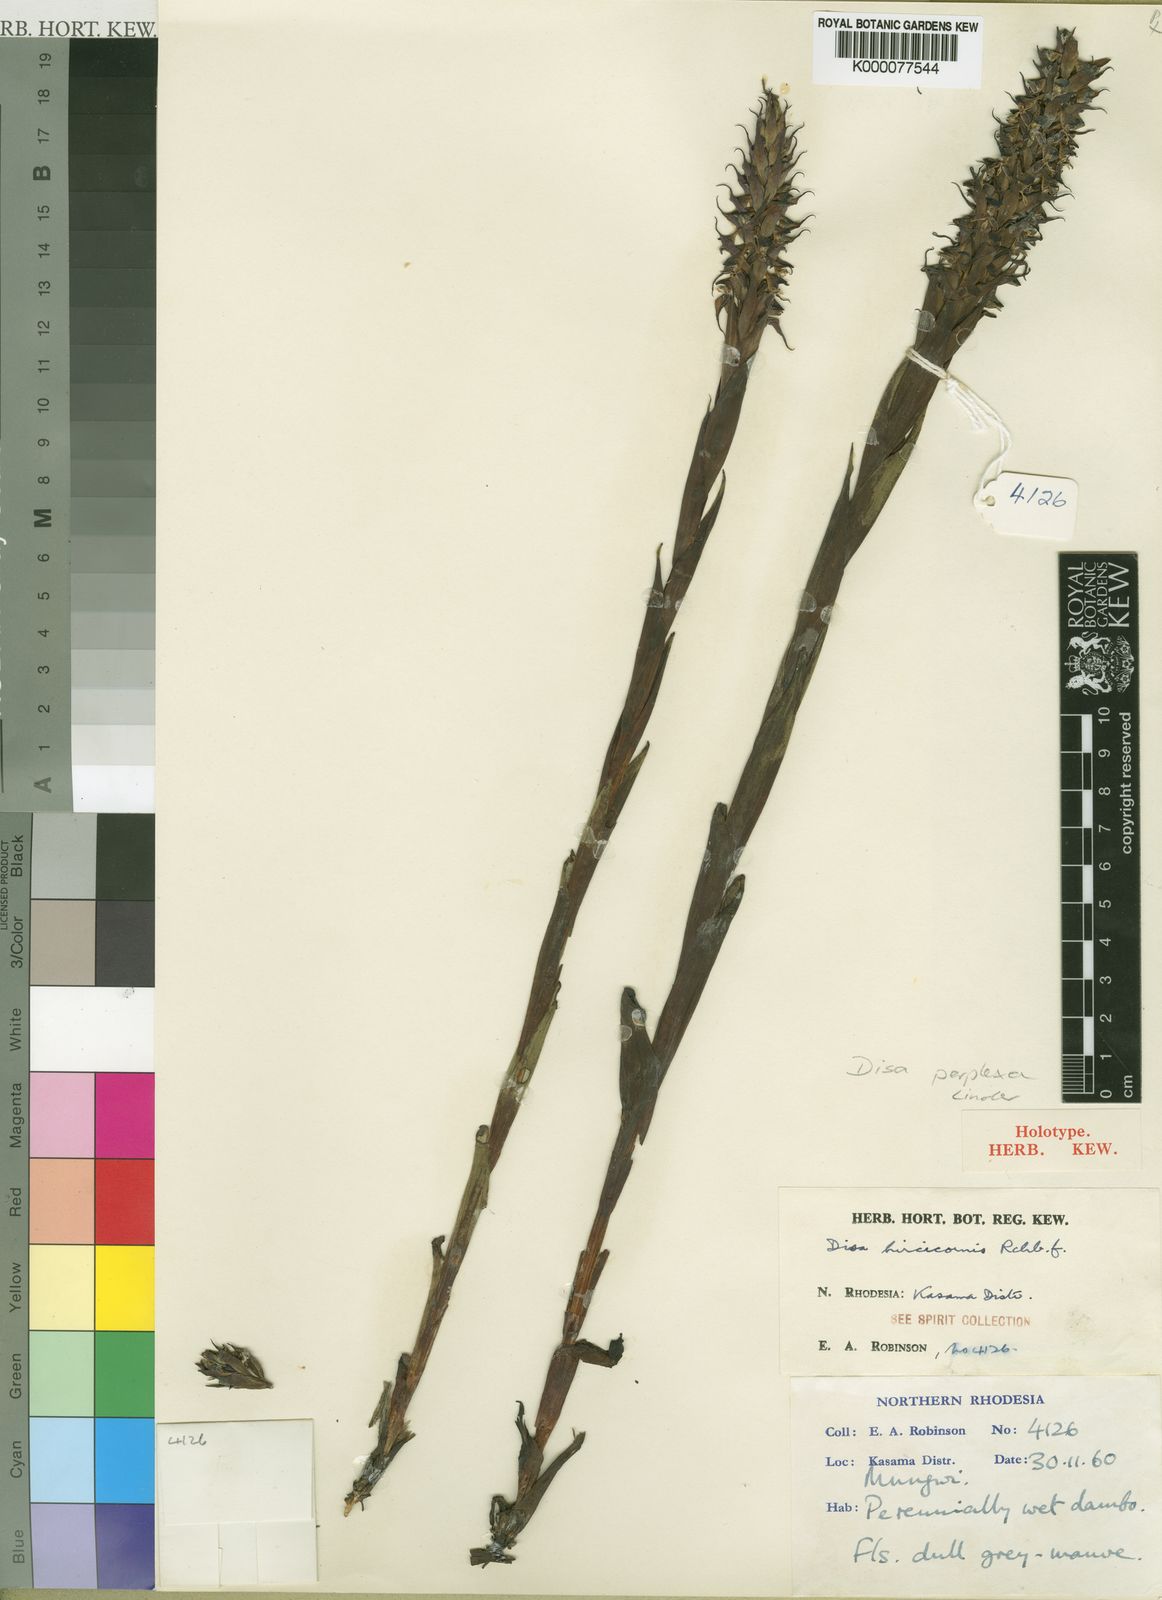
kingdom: Plantae
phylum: Tracheophyta
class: Liliopsida
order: Asparagales
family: Orchidaceae
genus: Disa
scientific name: Disa perplexa
